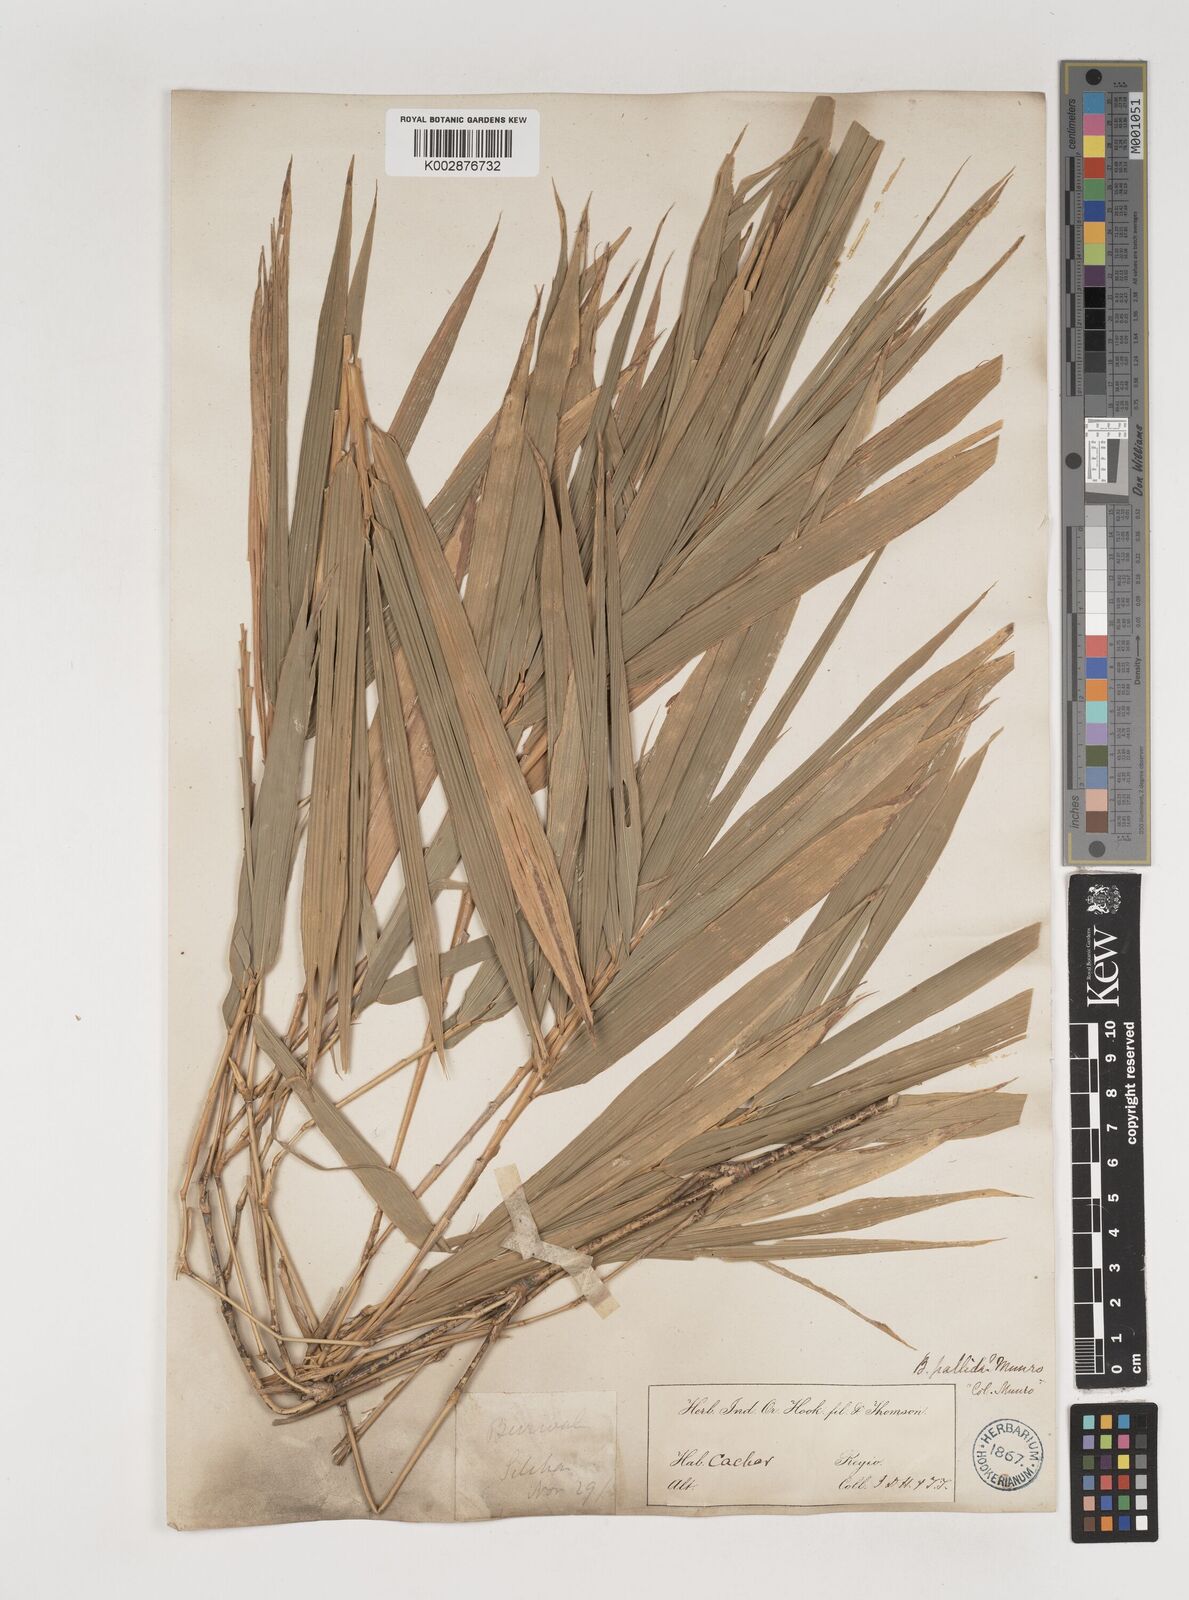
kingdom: Plantae
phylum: Tracheophyta
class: Liliopsida
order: Poales
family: Poaceae
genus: Bambusa
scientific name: Bambusa pallida
